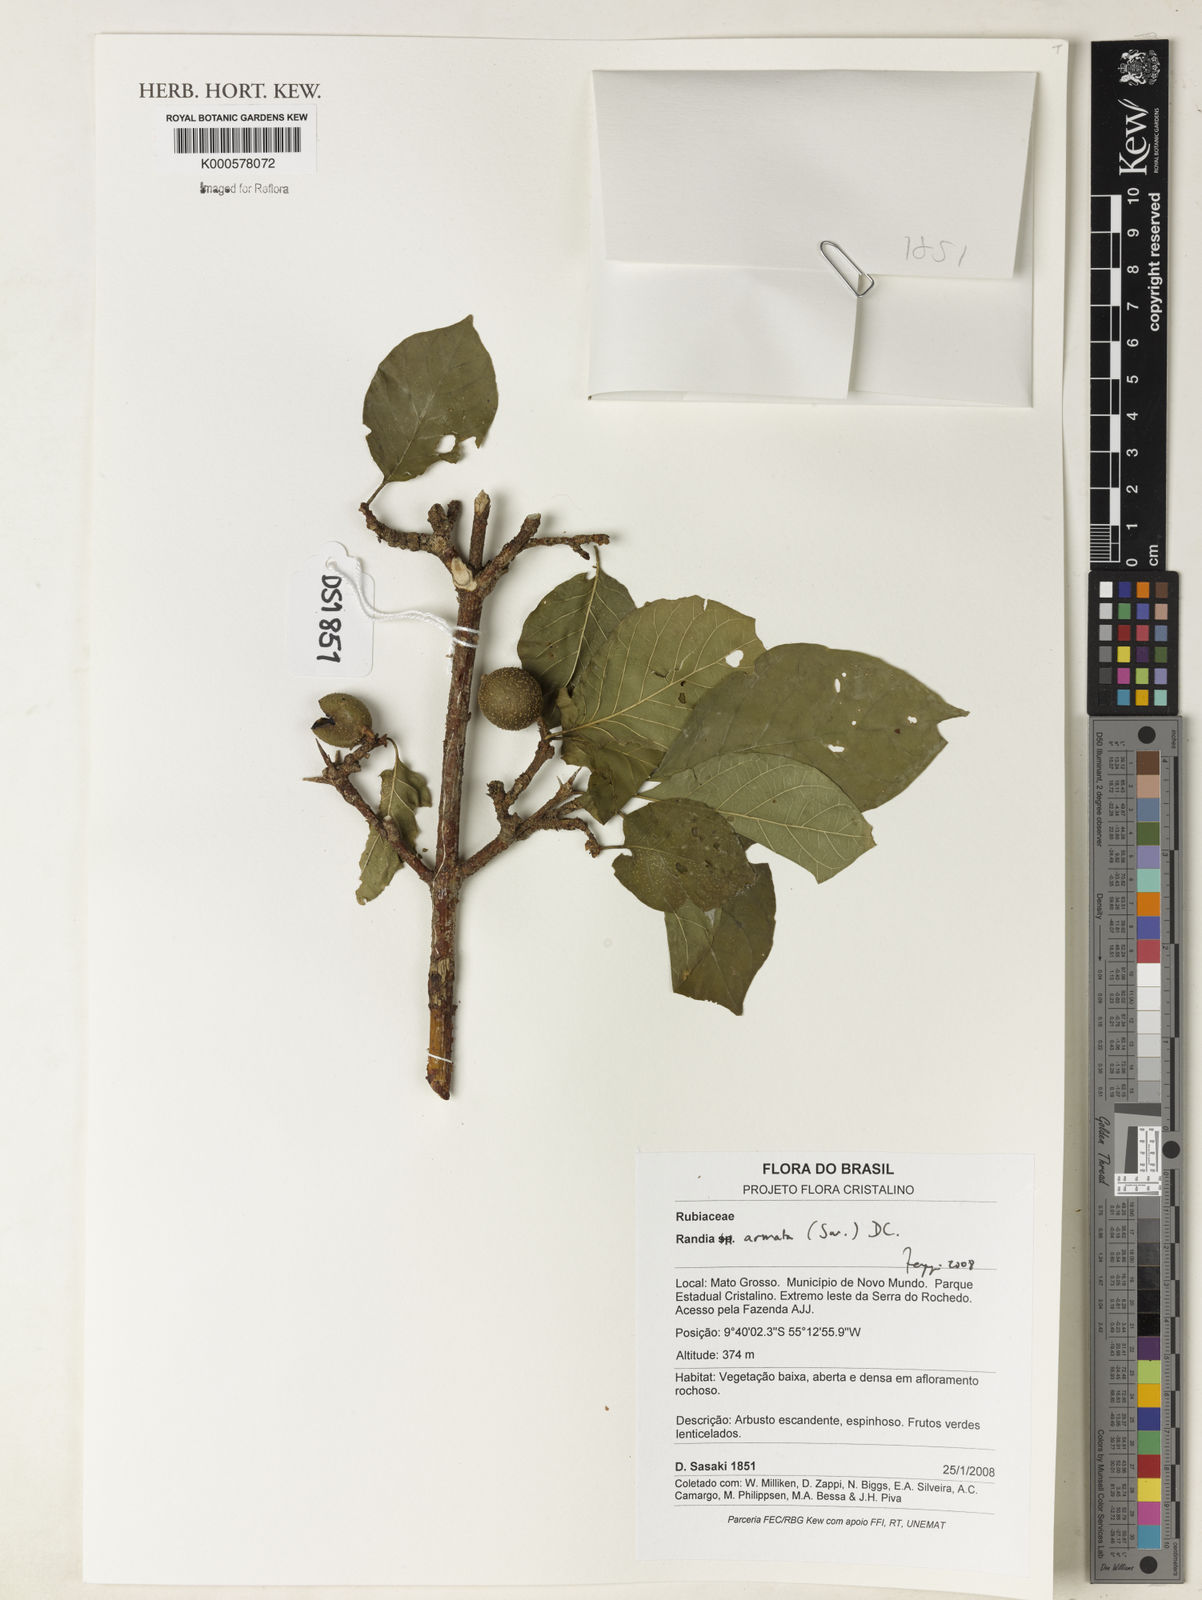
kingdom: Plantae
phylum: Tracheophyta
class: Magnoliopsida
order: Gentianales
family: Rubiaceae
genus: Randia
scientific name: Randia armata
